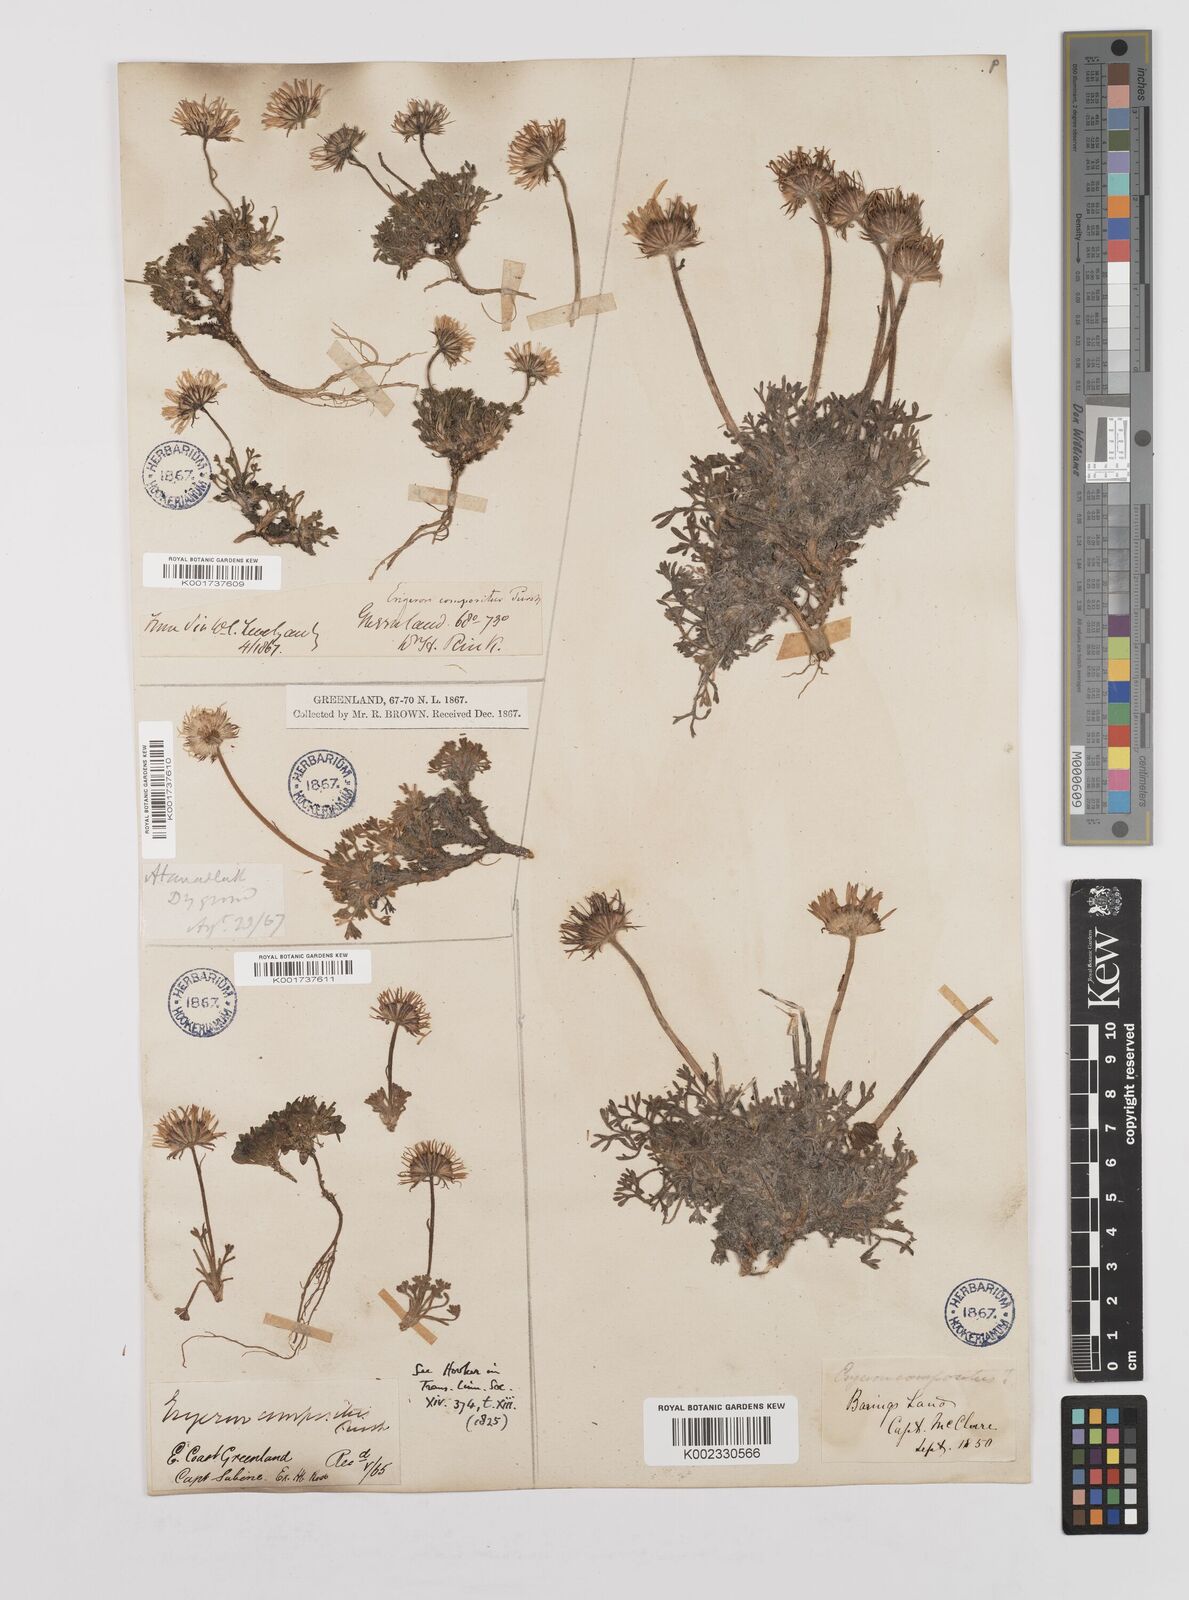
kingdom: Plantae
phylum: Tracheophyta
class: Magnoliopsida
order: Asterales
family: Asteraceae
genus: Erigeron
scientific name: Erigeron compositus
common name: Dwarf mountain fleabane
